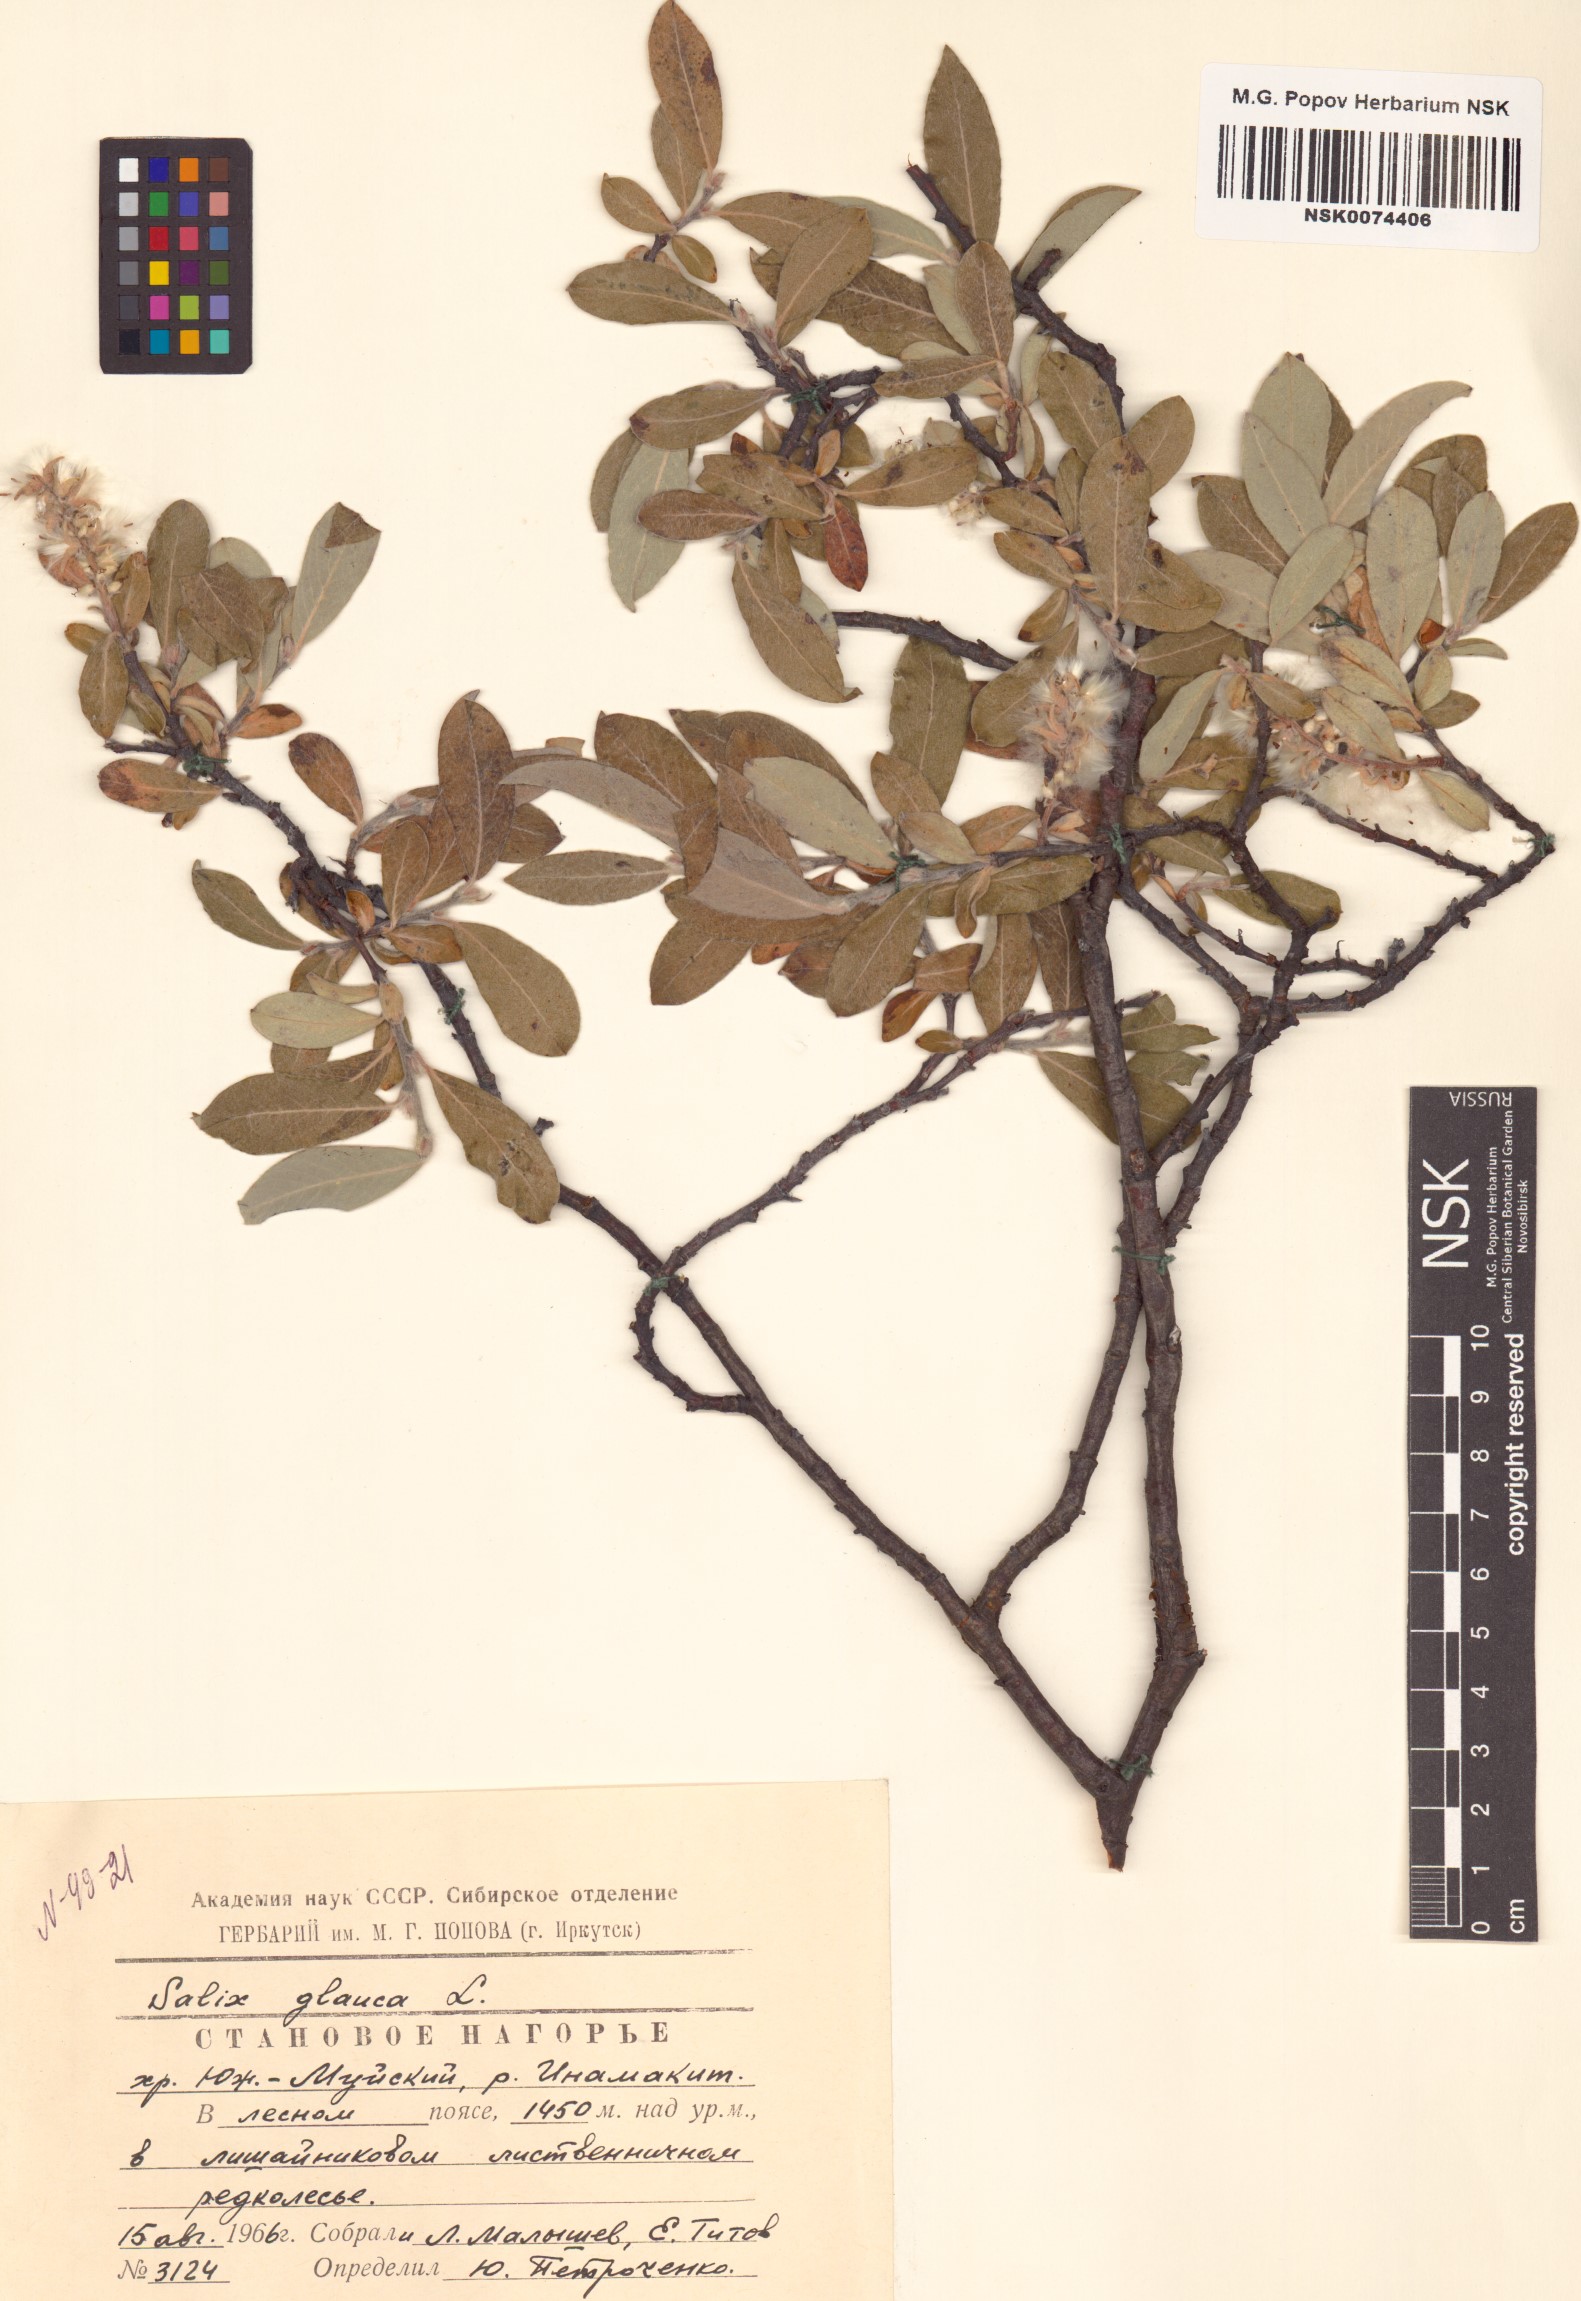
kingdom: Plantae
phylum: Tracheophyta
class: Magnoliopsida
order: Malpighiales
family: Salicaceae
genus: Salix
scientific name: Salix glauca
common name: Glaucous willow
